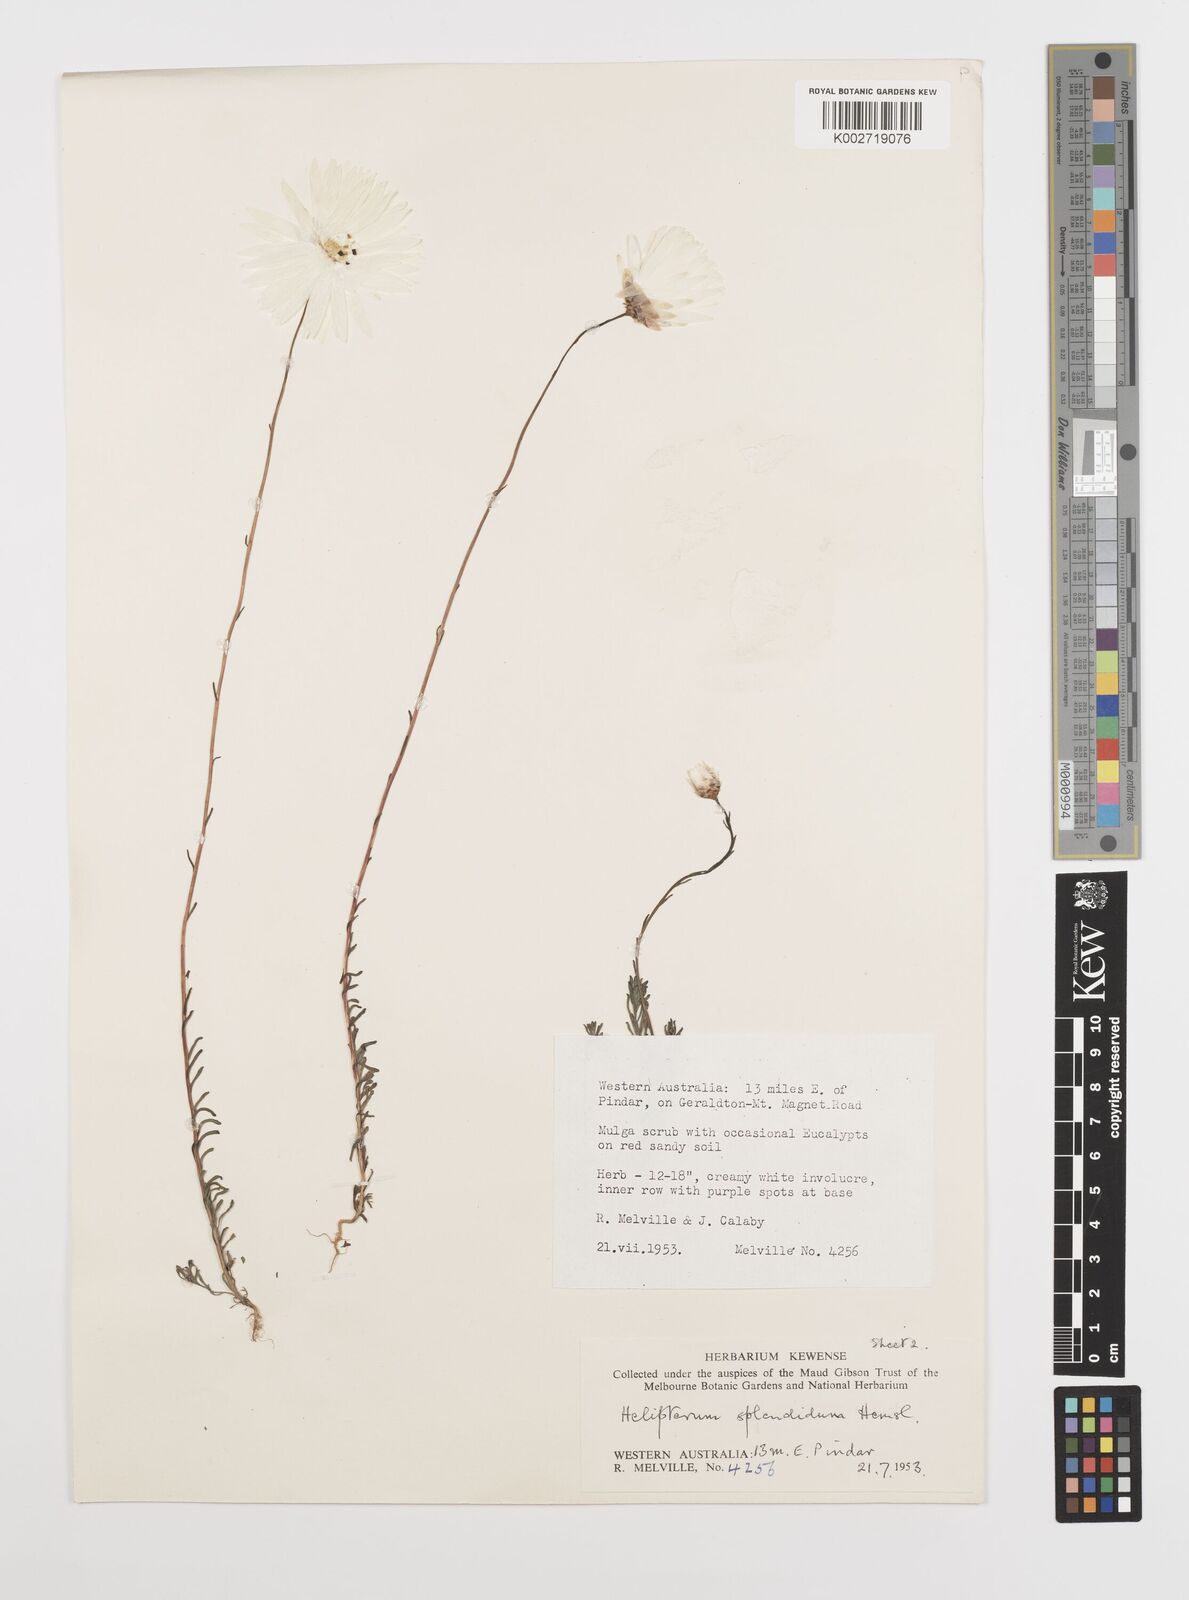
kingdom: Plantae
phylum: Tracheophyta
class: Magnoliopsida
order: Asterales
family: Asteraceae
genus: Rhodanthe
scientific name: Rhodanthe chlorocephala
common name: Rosy sunray
